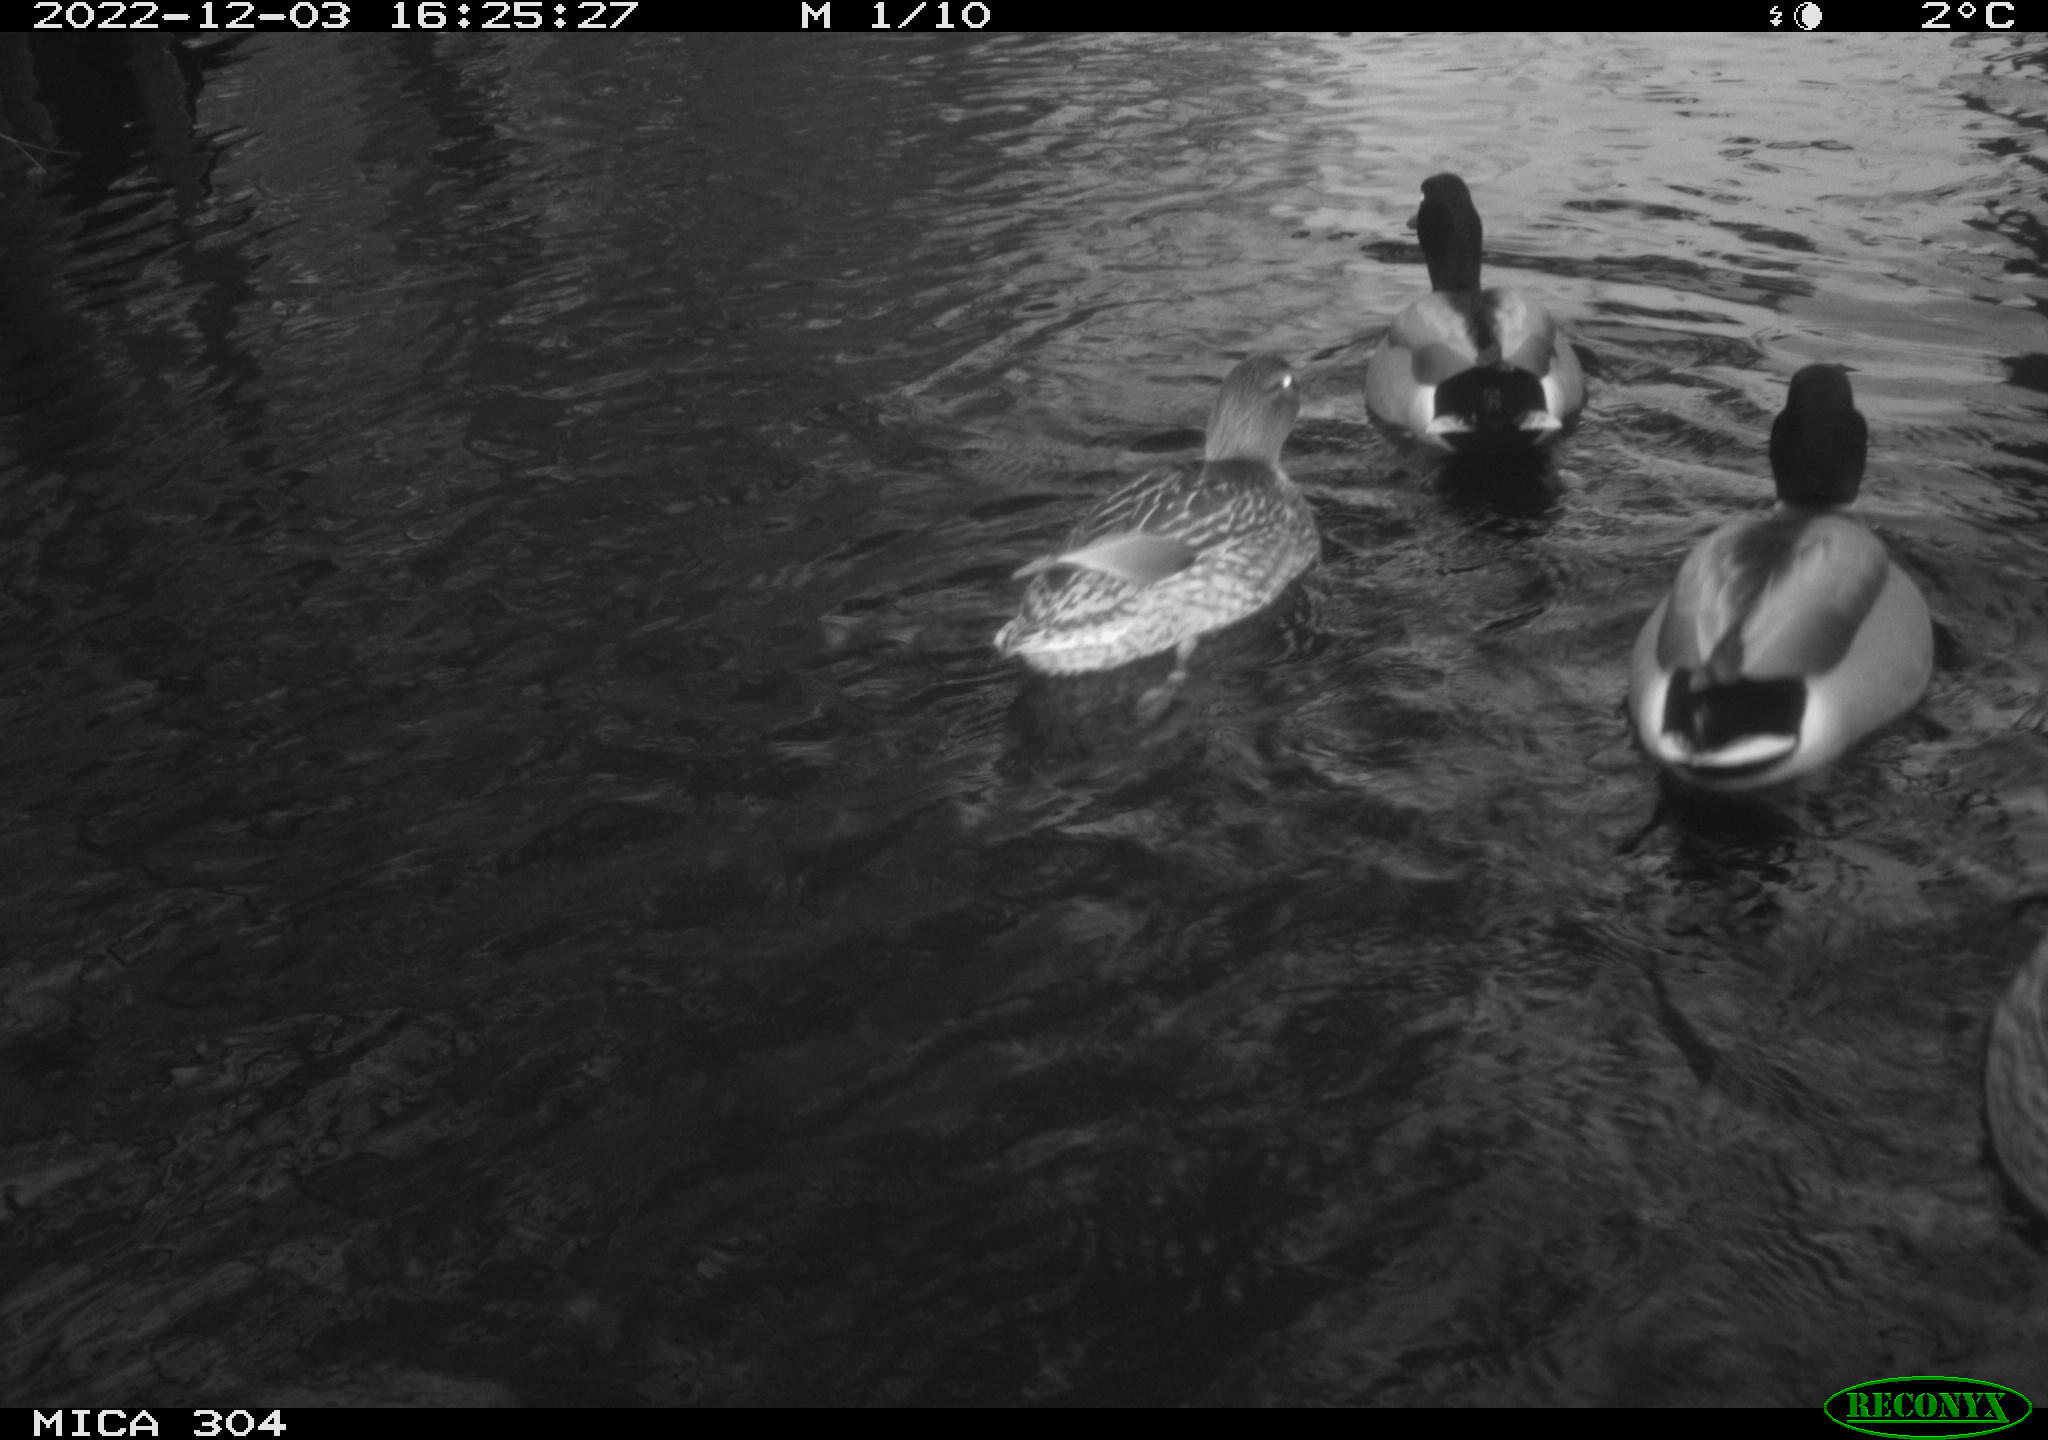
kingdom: Animalia
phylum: Chordata
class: Aves
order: Anseriformes
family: Anatidae
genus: Anas
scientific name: Anas
